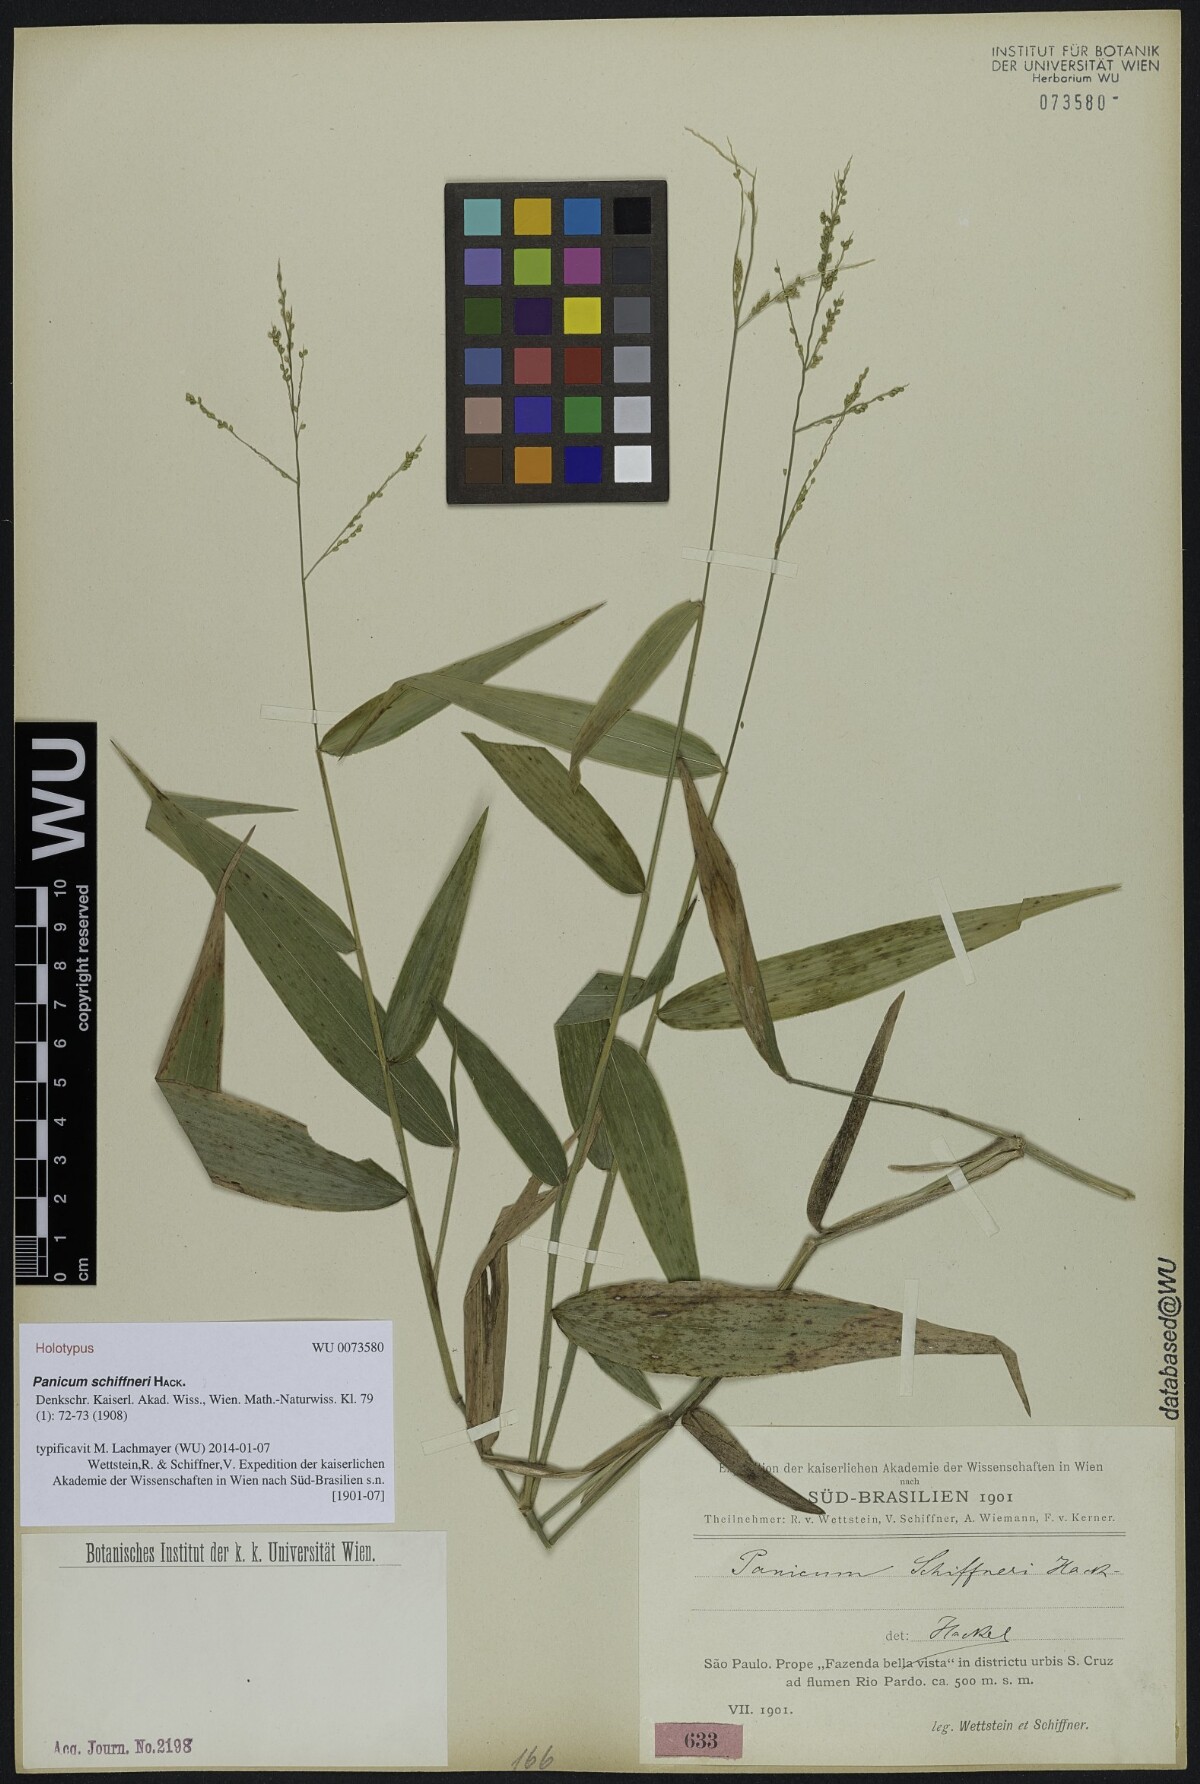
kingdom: Plantae
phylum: Tracheophyta
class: Liliopsida
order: Poales
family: Poaceae
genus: Morronea
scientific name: Morronea trichidiachnis
